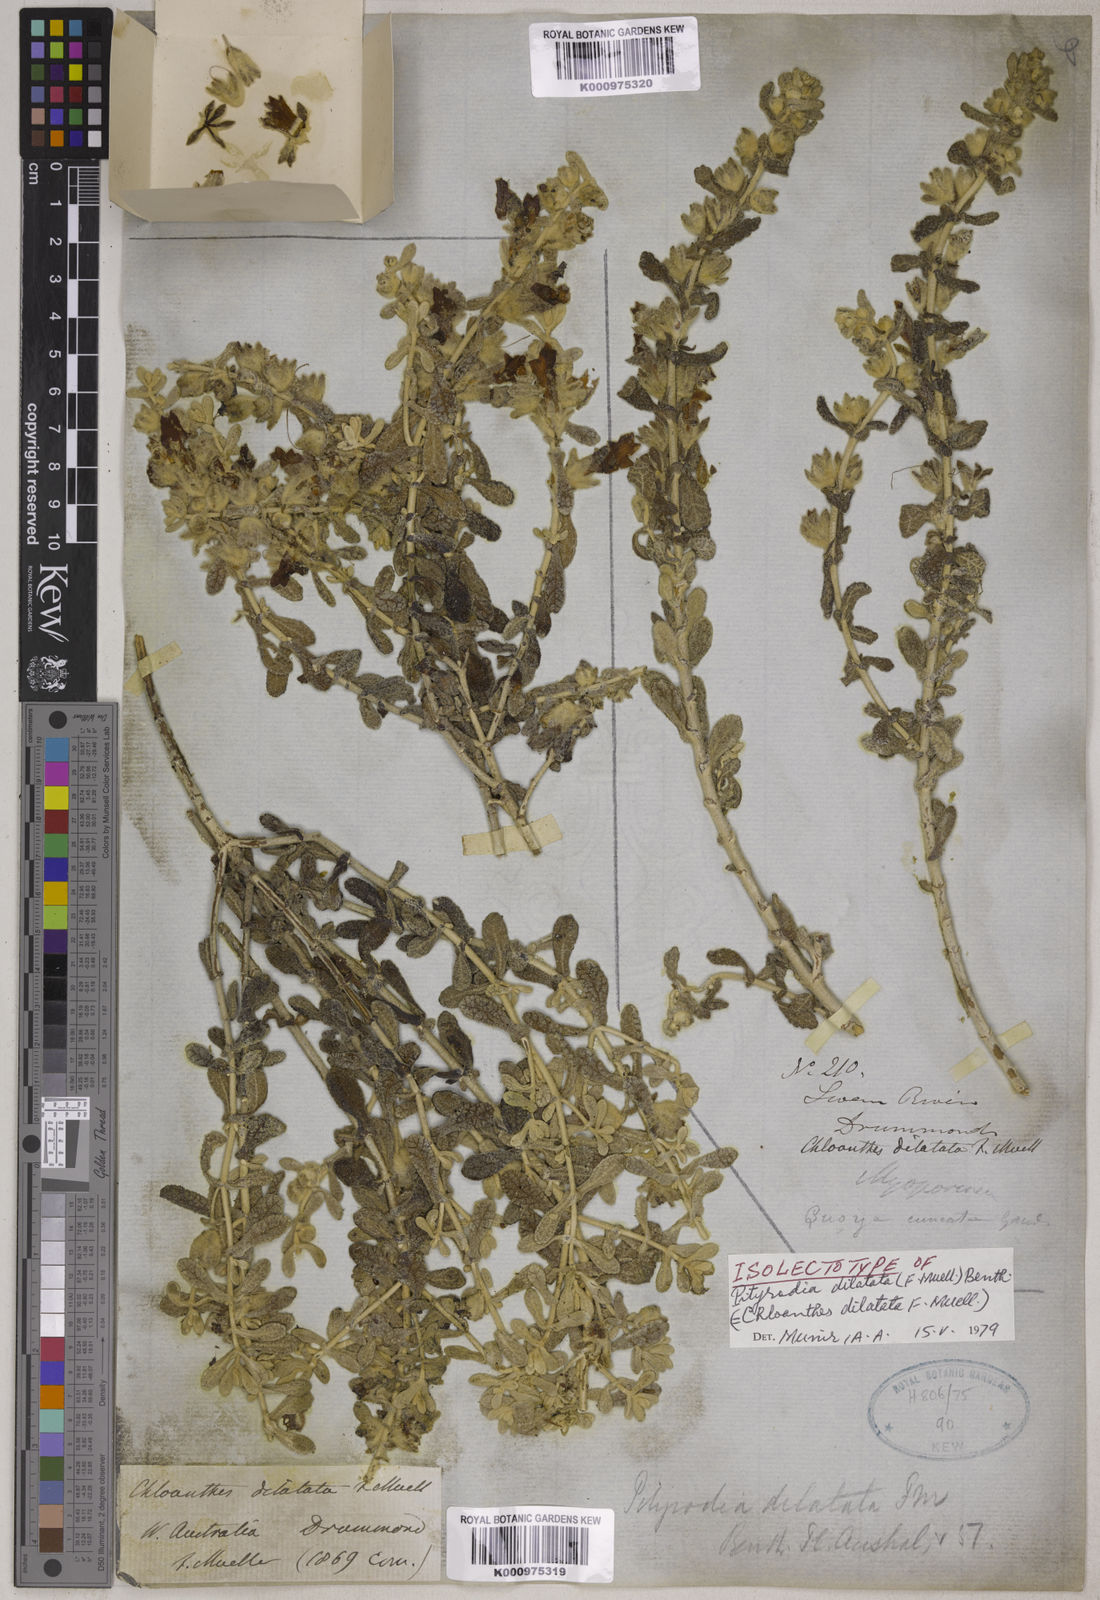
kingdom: Plantae
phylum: Tracheophyta
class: Magnoliopsida
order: Lamiales
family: Lamiaceae
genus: Quoya
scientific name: Quoya dilatata
